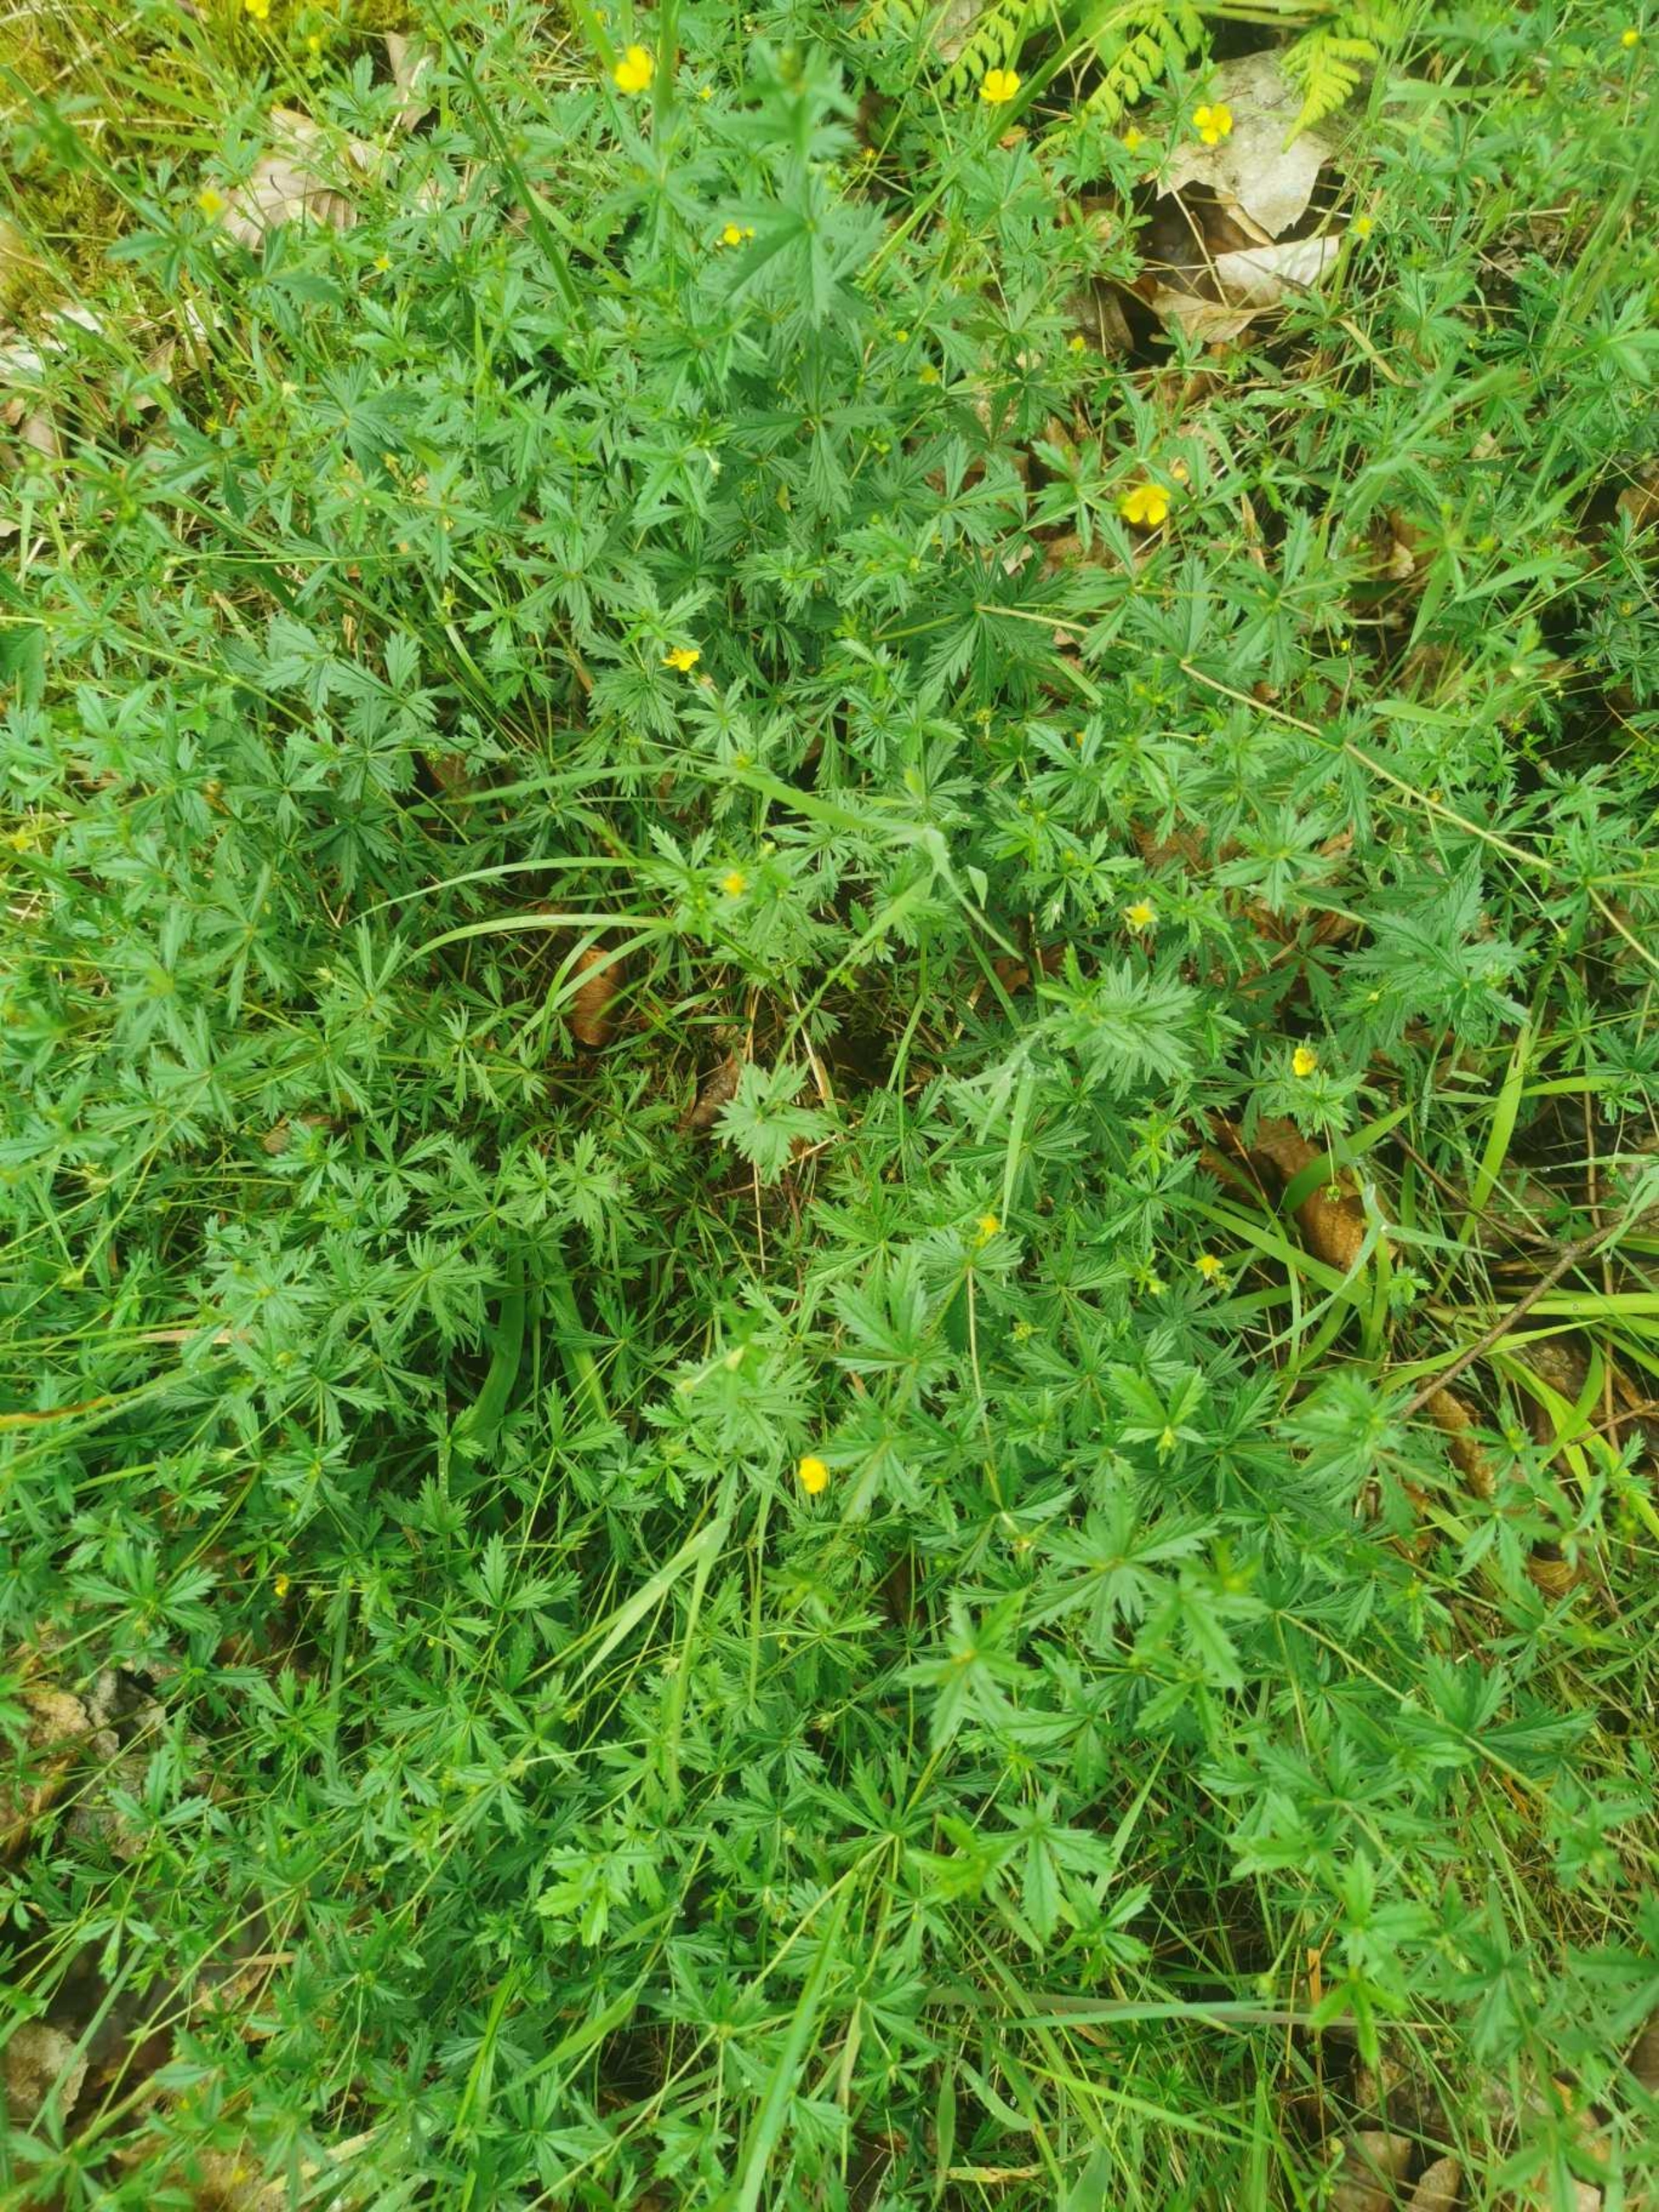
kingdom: Plantae
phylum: Tracheophyta
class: Magnoliopsida
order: Rosales
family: Rosaceae
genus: Potentilla
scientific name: Potentilla erecta
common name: Tormentil
